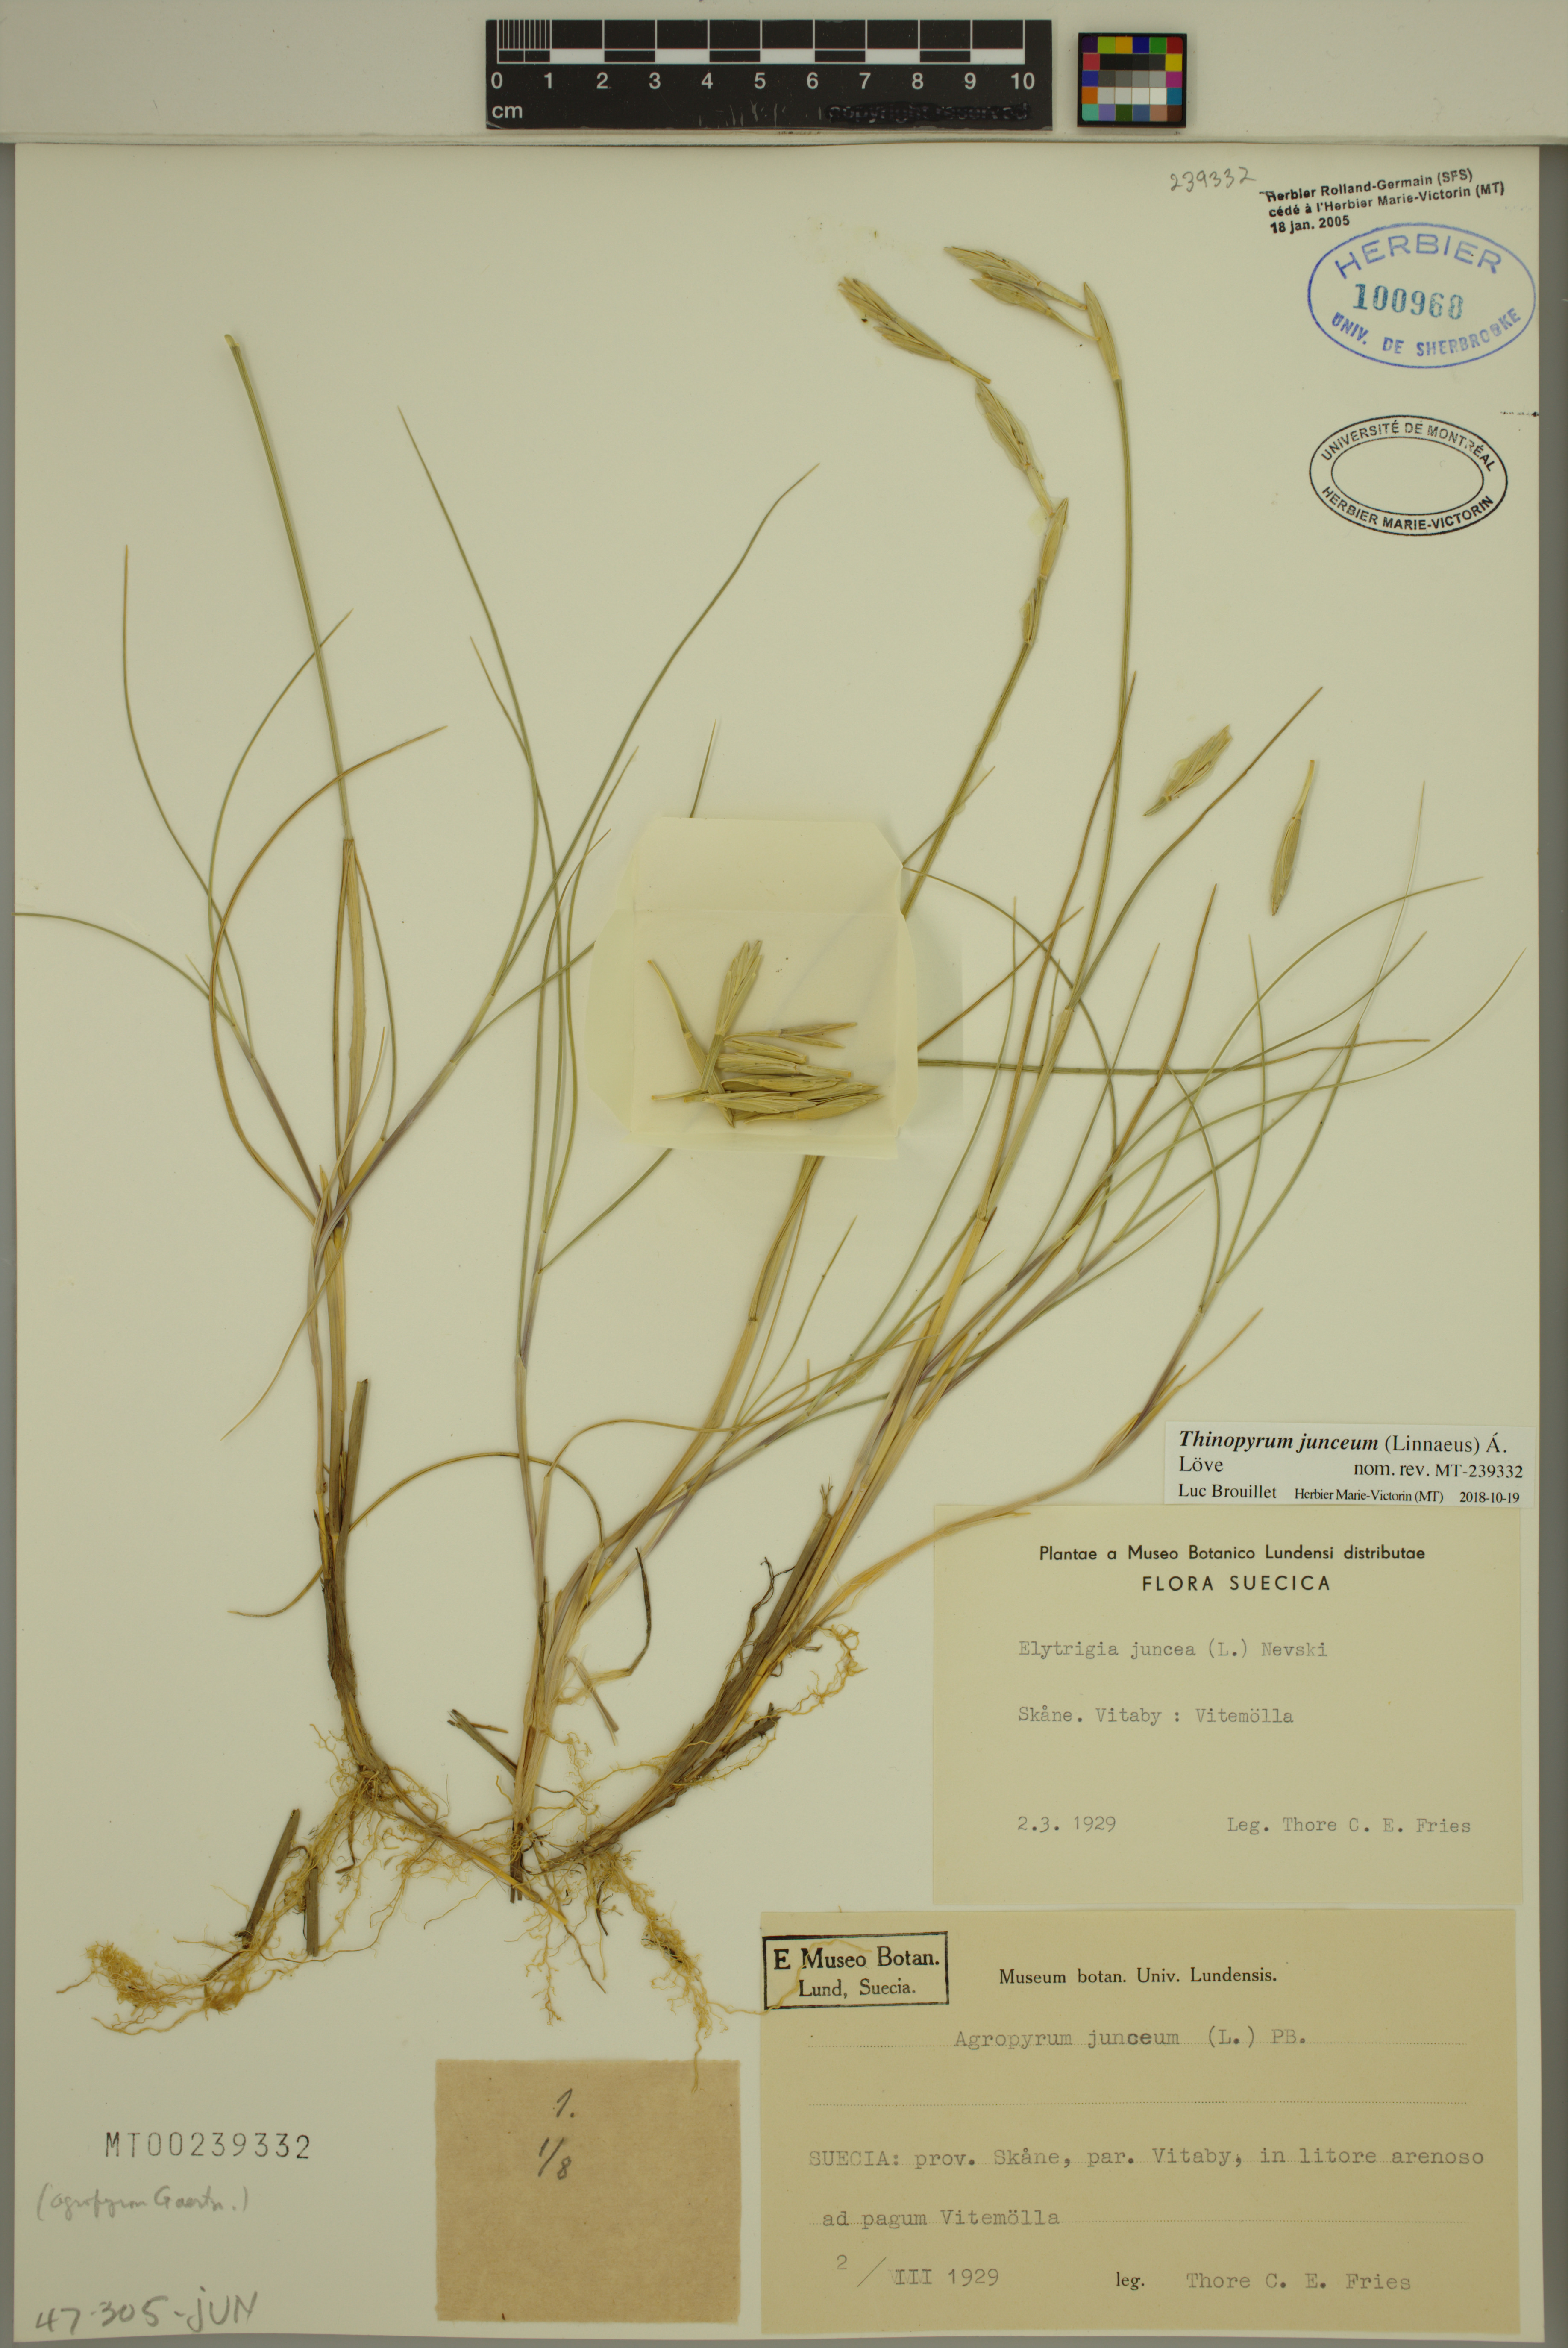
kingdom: Plantae
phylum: Tracheophyta
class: Liliopsida
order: Poales
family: Poaceae
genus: Thinopyrum
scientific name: Thinopyrum junceum
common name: Russian wheatgrass
